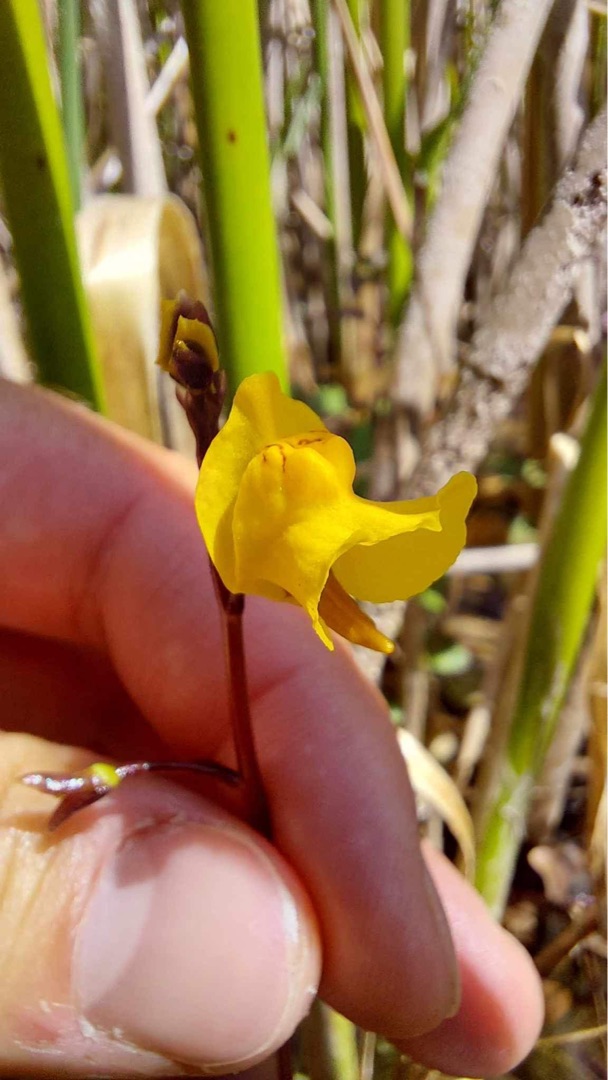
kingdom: Plantae
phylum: Tracheophyta
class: Magnoliopsida
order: Lamiales
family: Lentibulariaceae
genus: Utricularia
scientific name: Utricularia vulgaris
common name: Almindelig blærerod
